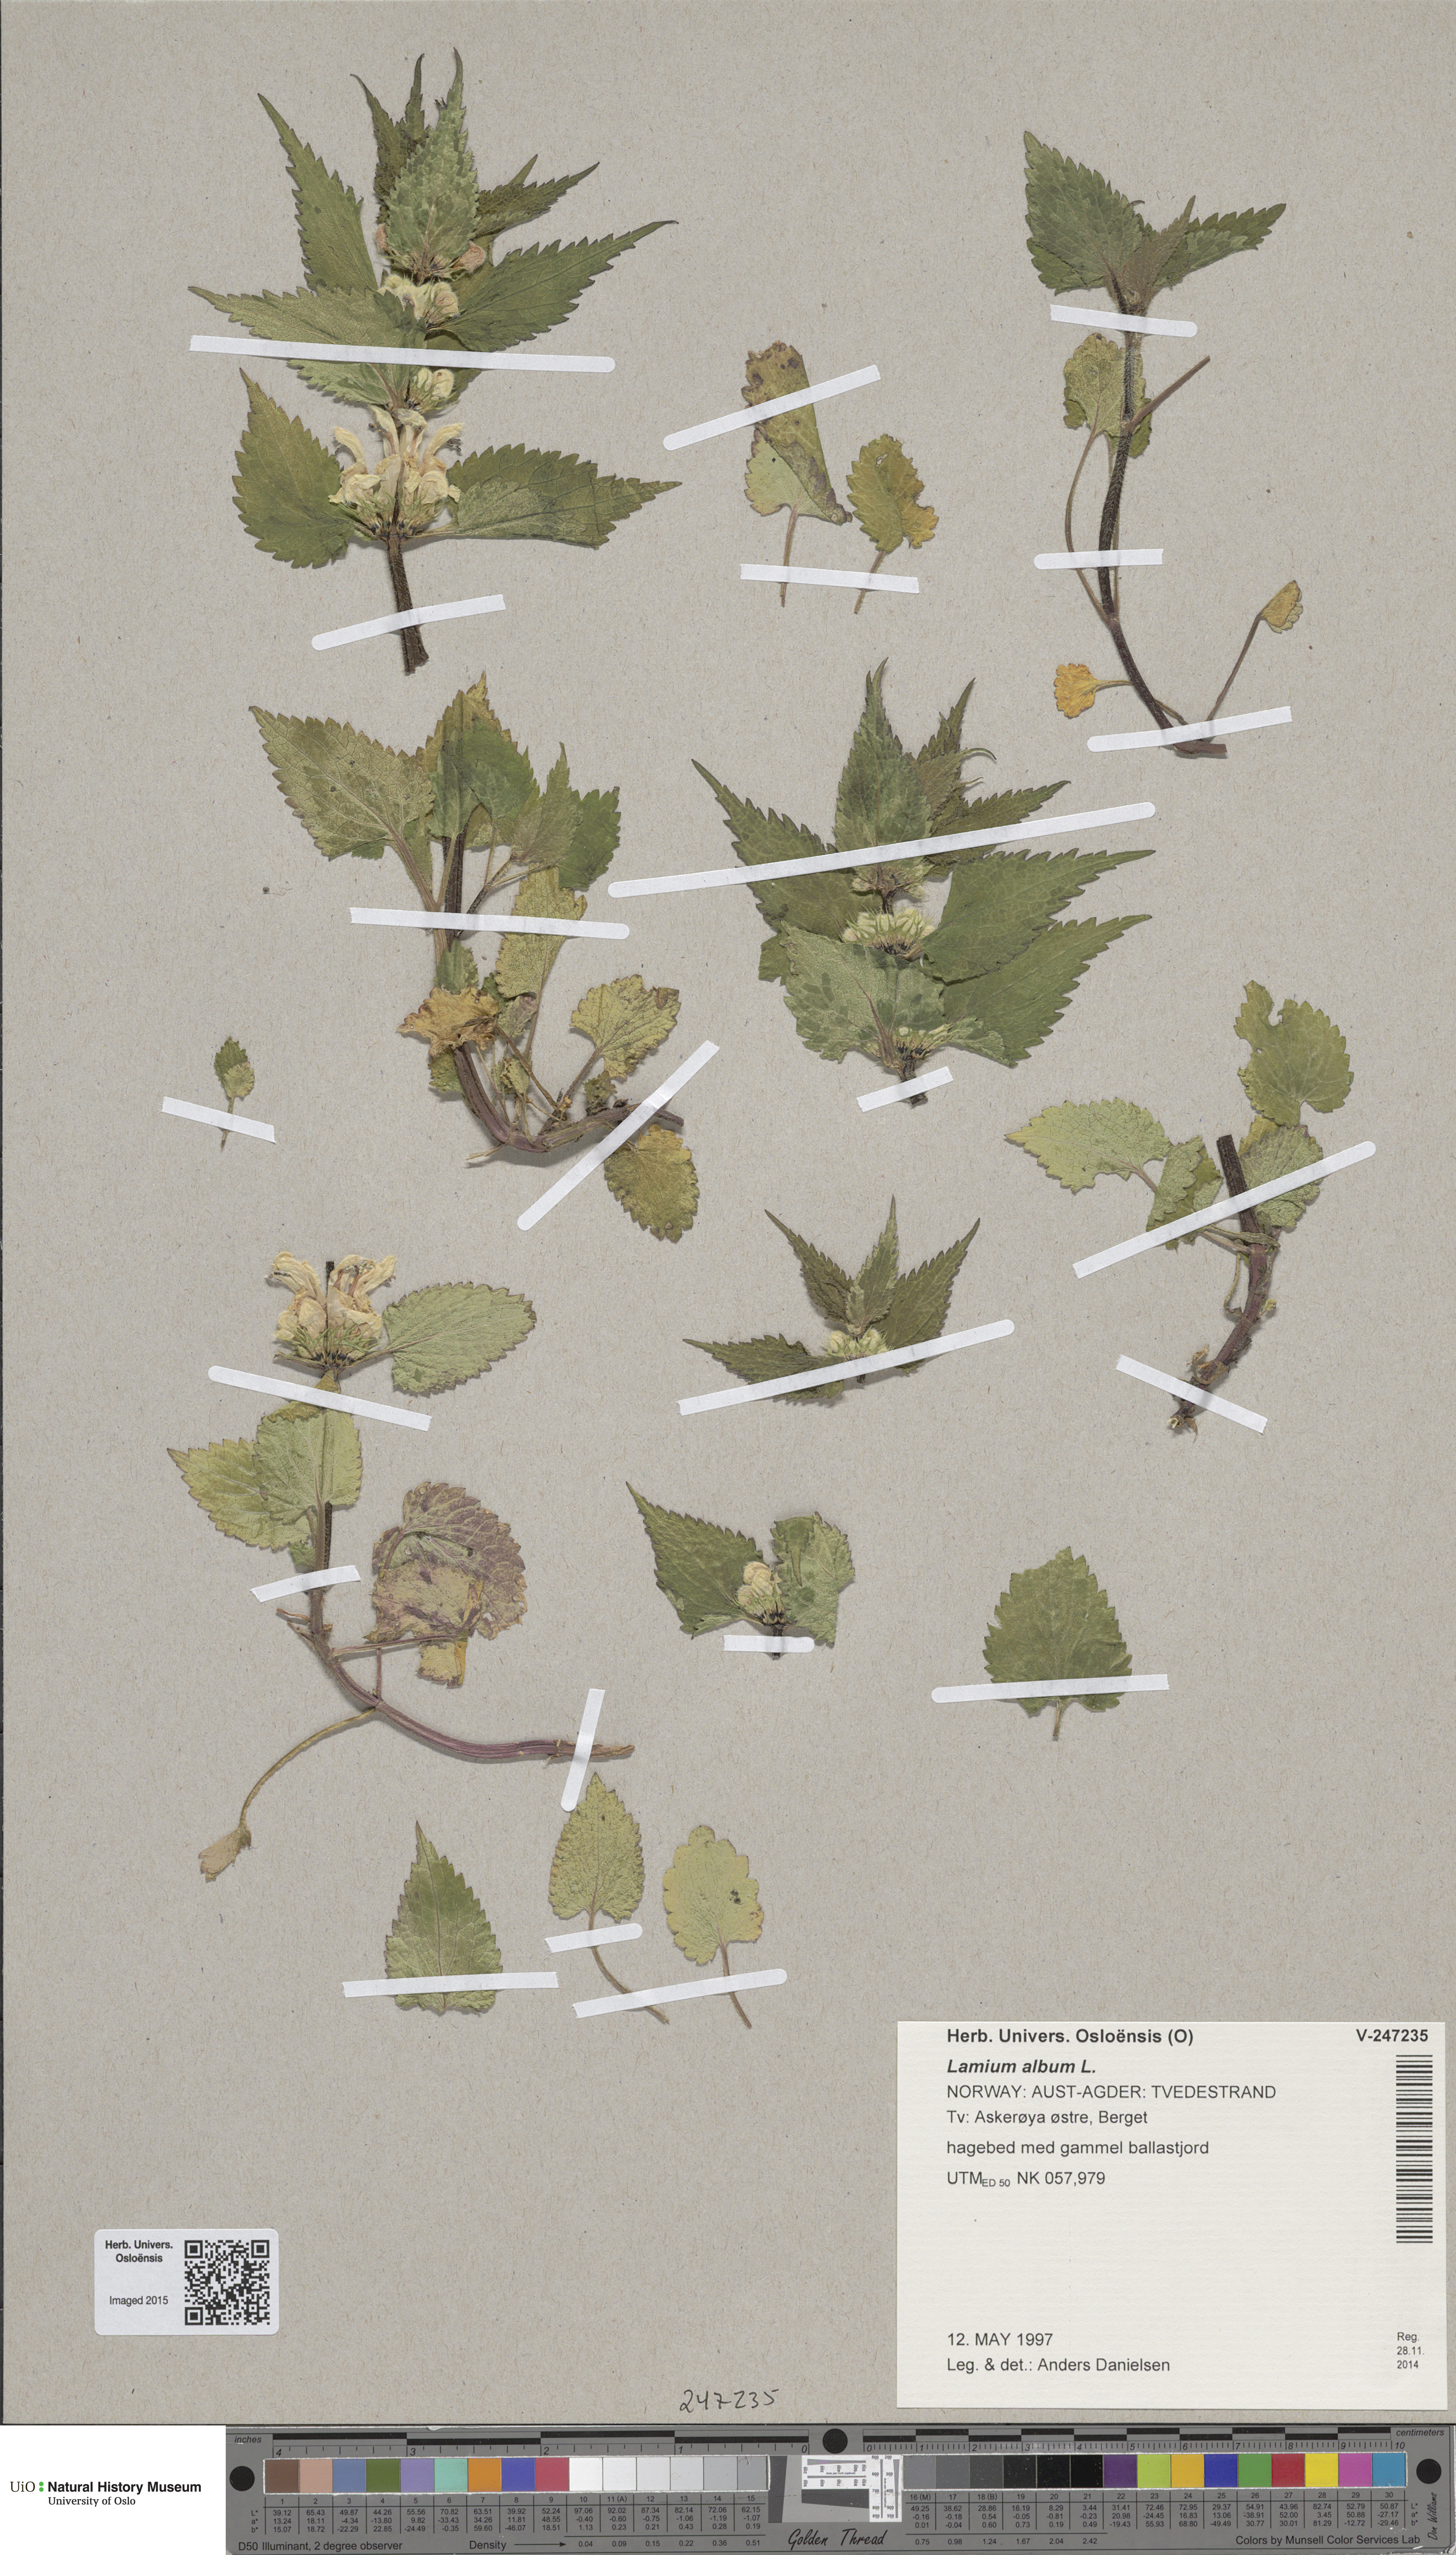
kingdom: Plantae
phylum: Tracheophyta
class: Magnoliopsida
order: Lamiales
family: Lamiaceae
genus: Lamium
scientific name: Lamium album
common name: White dead-nettle
